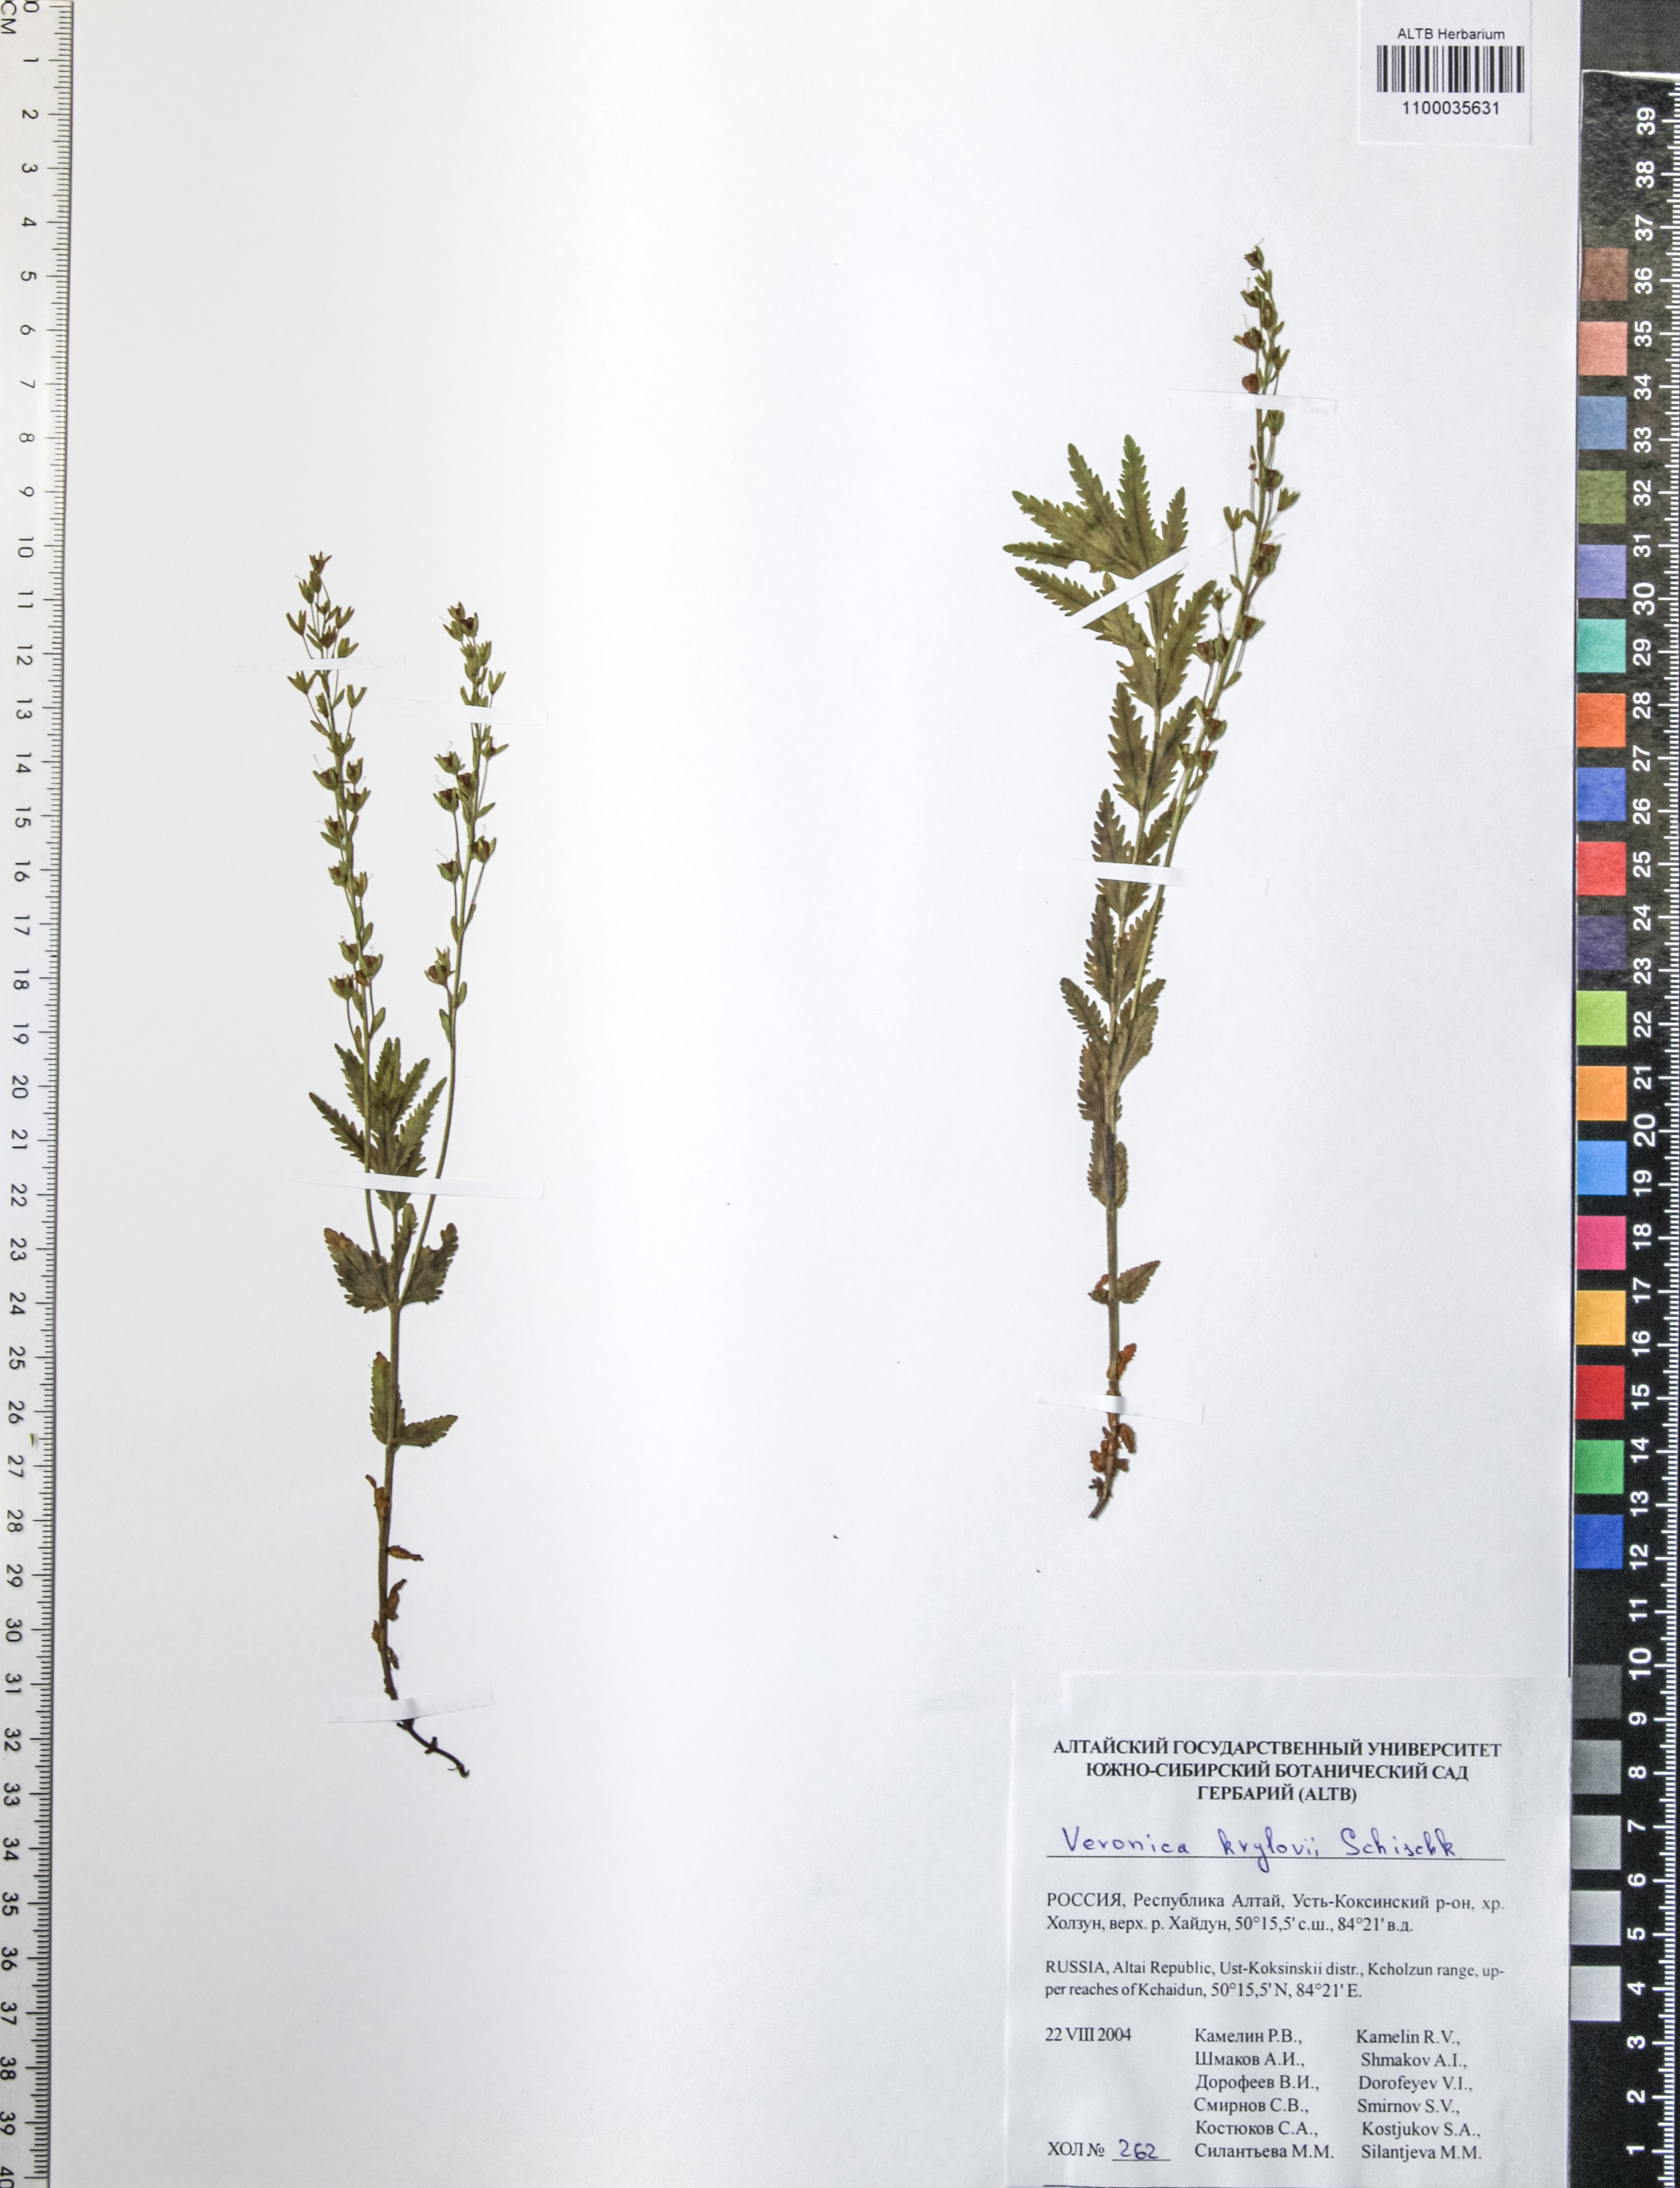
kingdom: Plantae
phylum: Tracheophyta
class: Magnoliopsida
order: Lamiales
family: Plantaginaceae
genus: Veronica
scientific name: Veronica krylovii
